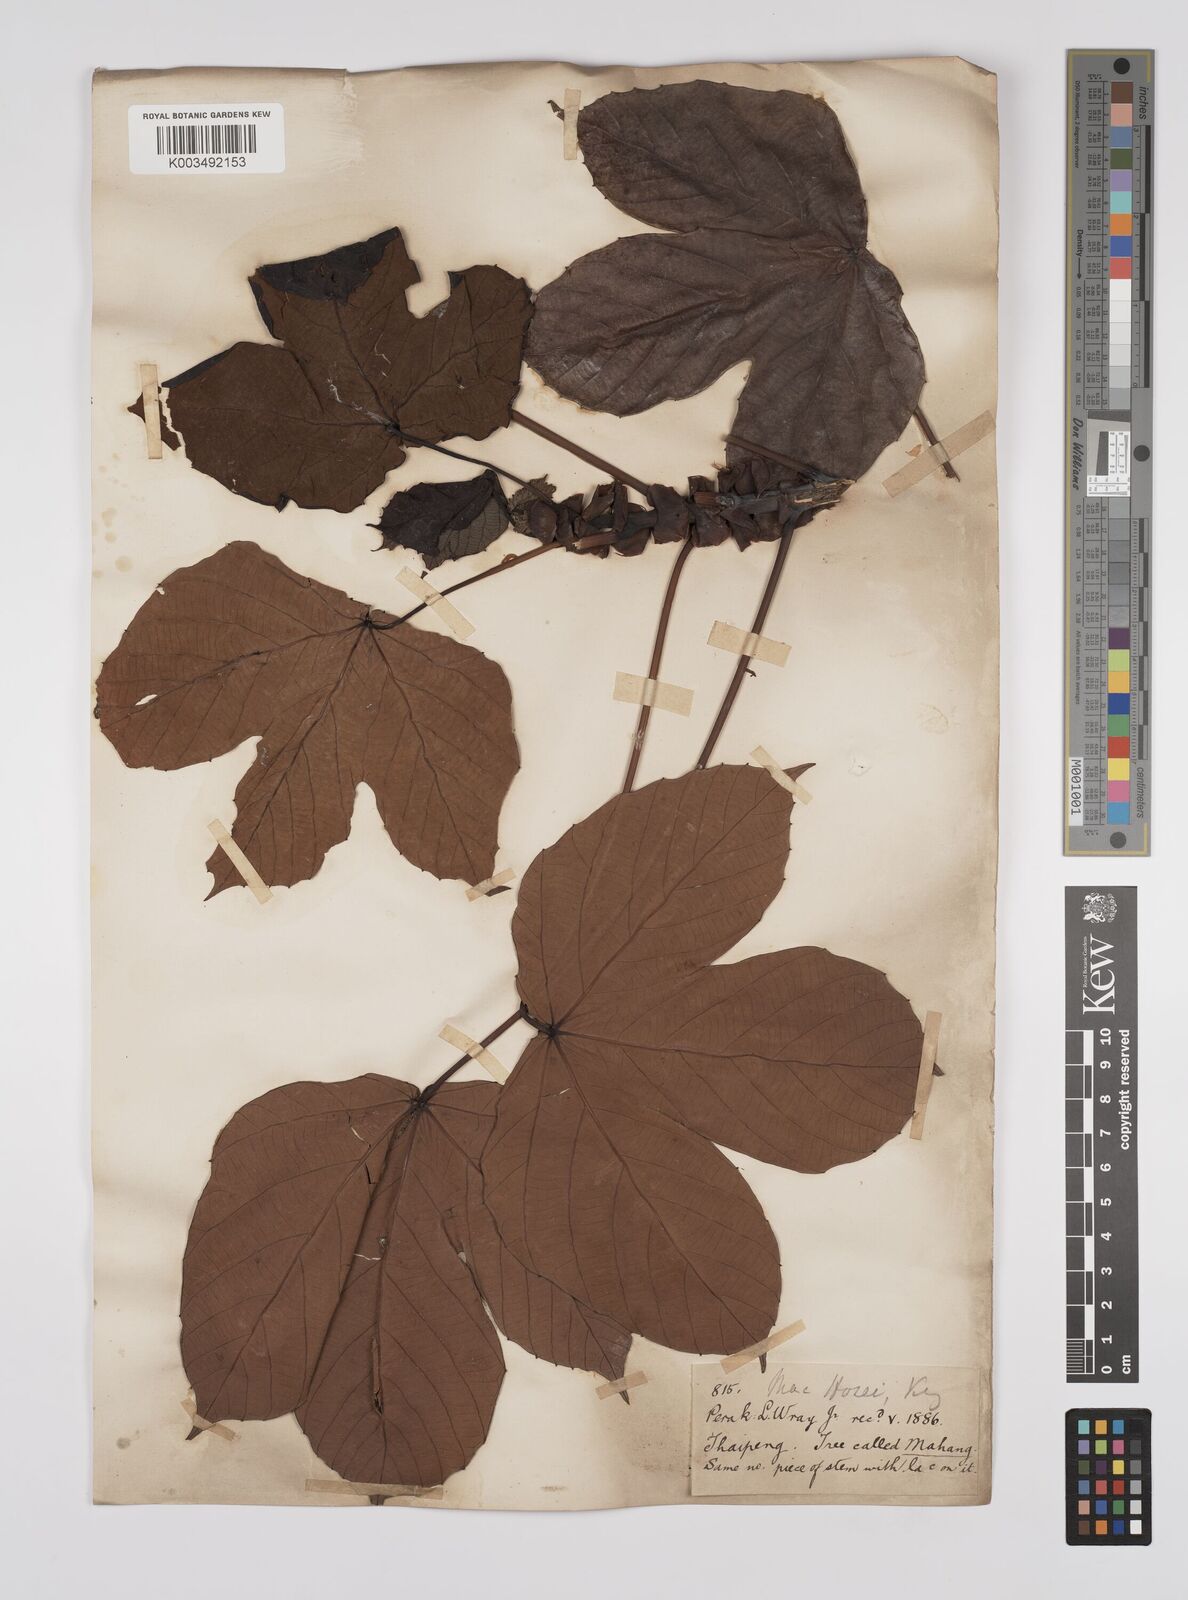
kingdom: Plantae
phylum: Tracheophyta
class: Magnoliopsida
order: Malpighiales
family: Euphorbiaceae
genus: Macaranga
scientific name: Macaranga hosei
